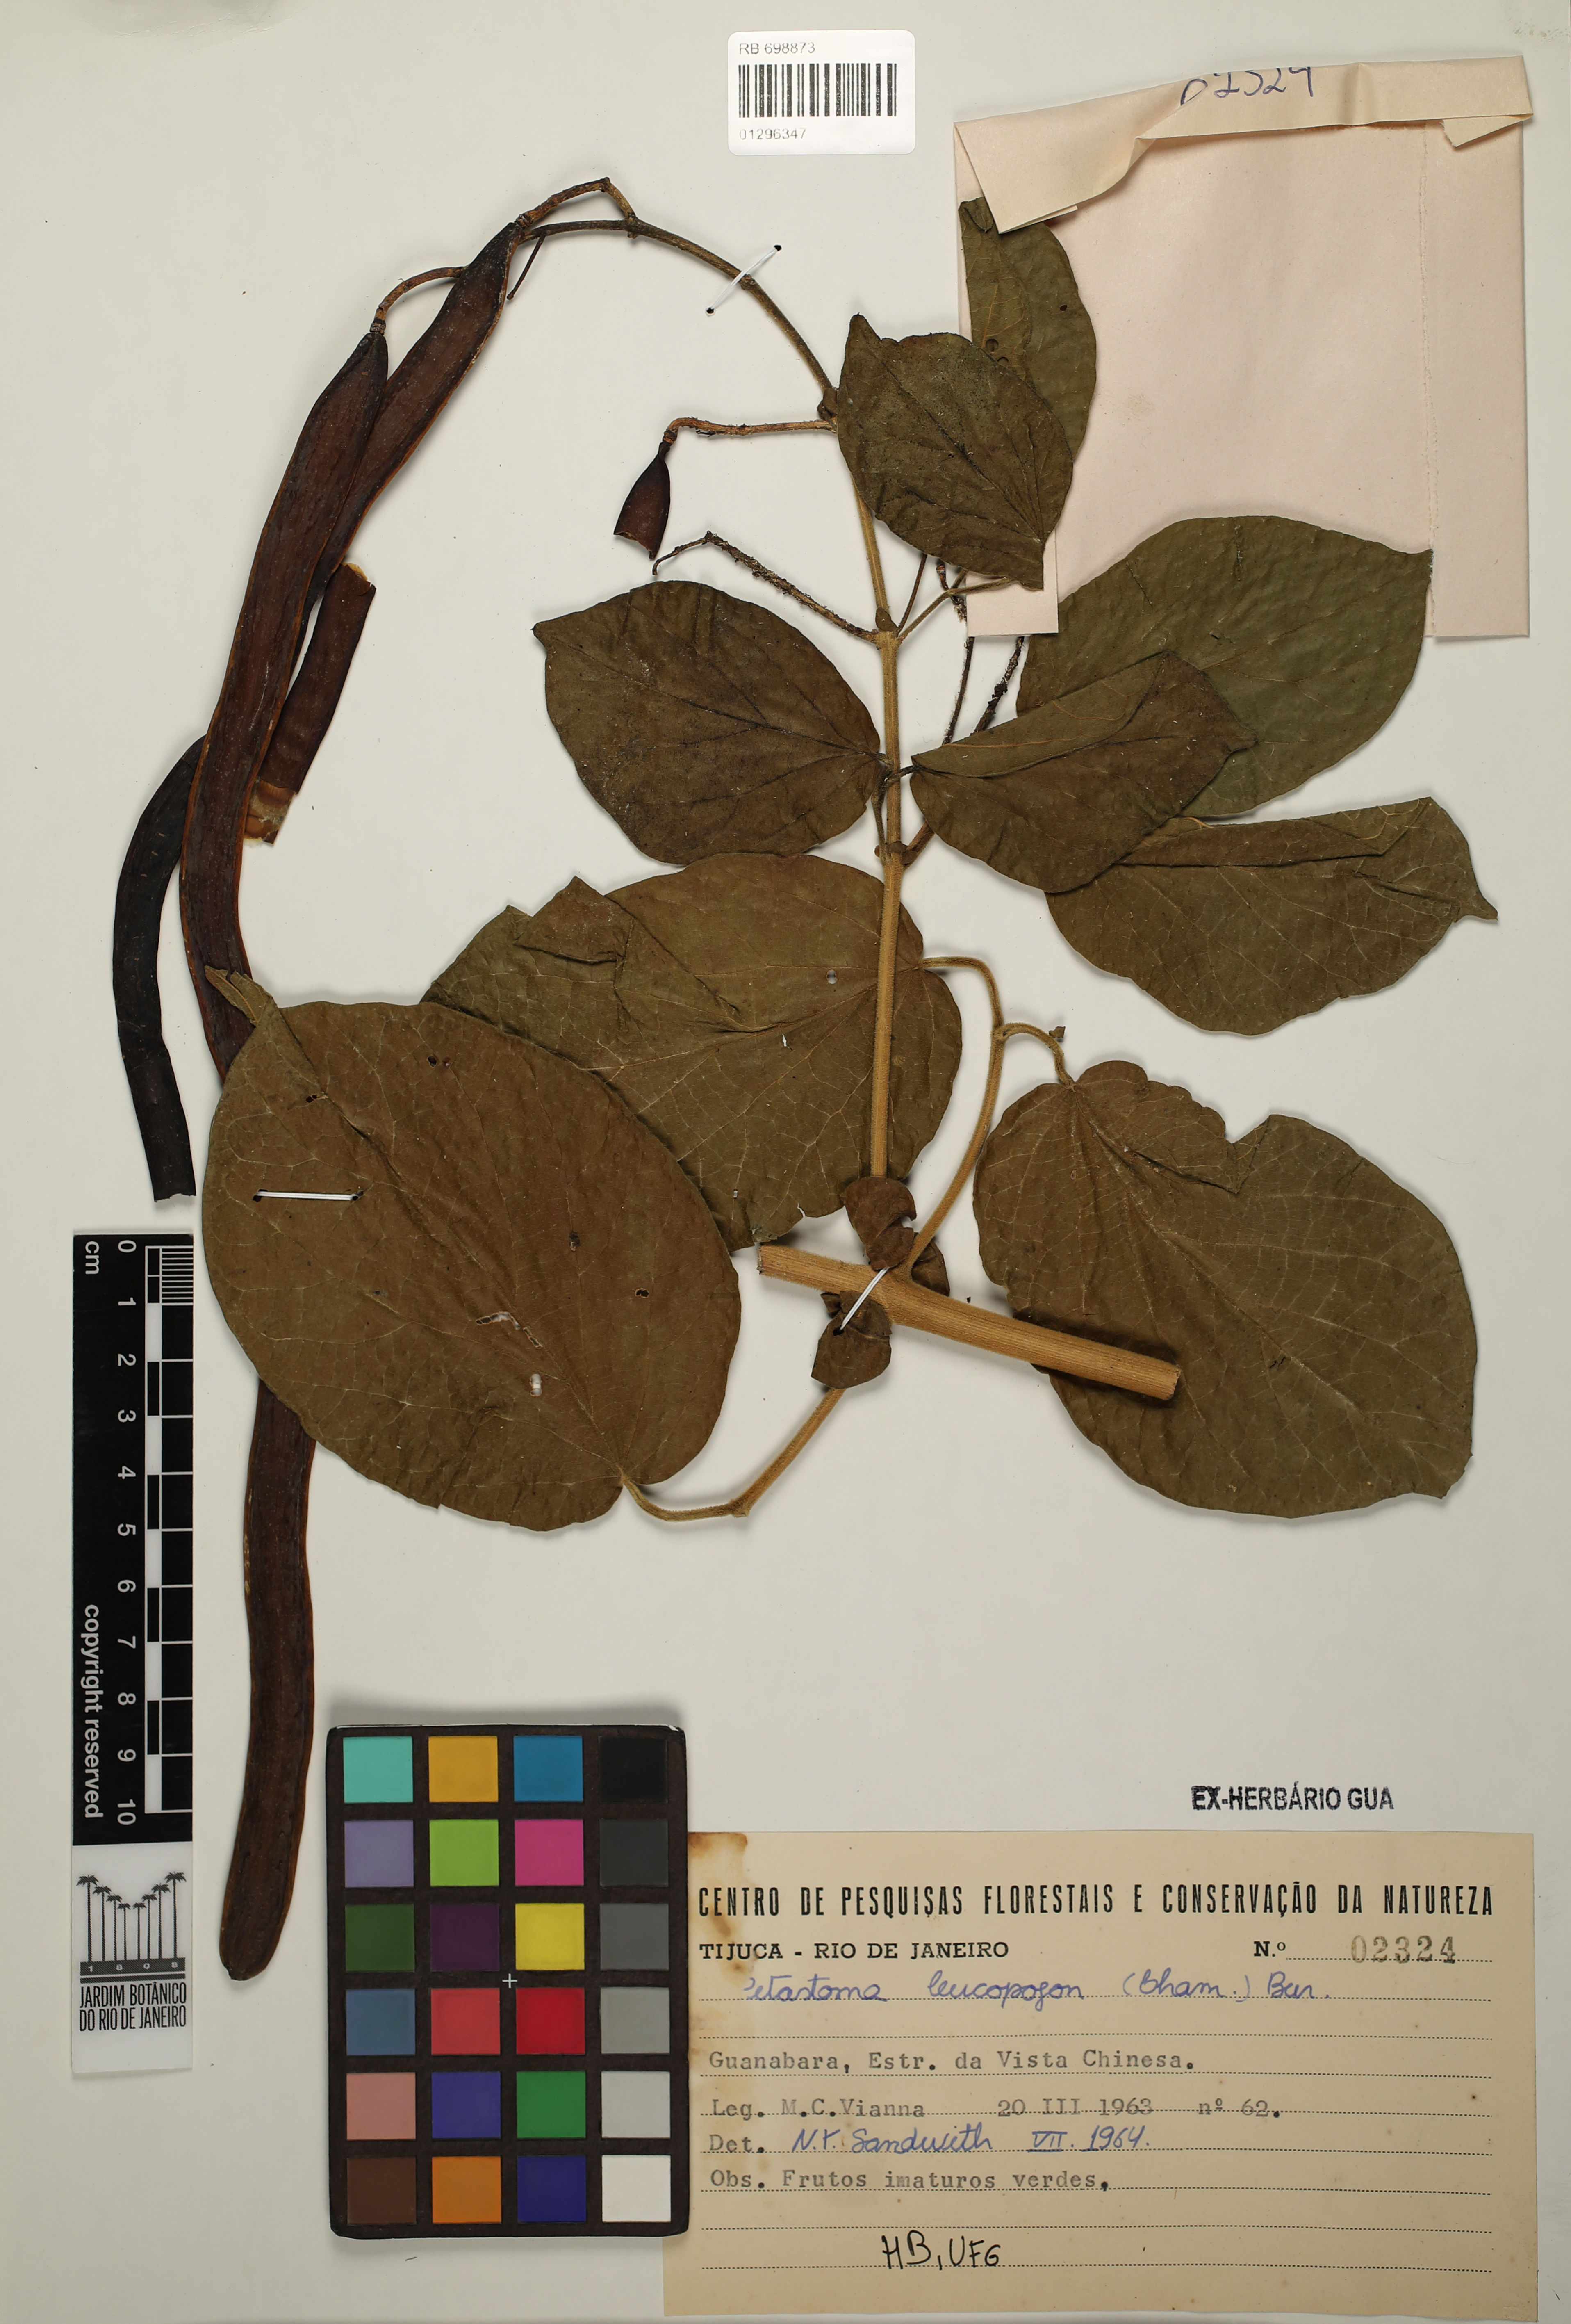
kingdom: Plantae
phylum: Tracheophyta
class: Magnoliopsida
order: Lamiales
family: Bignoniaceae
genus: Fridericia
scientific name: Fridericia leucopogon
